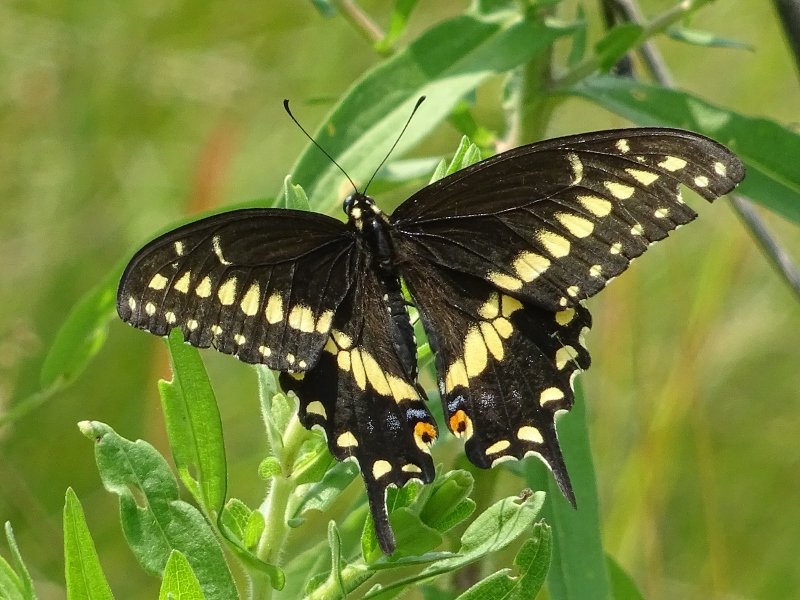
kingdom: Animalia
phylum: Arthropoda
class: Insecta
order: Lepidoptera
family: Papilionidae
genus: Papilio
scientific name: Papilio polyxenes
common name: Black Swallowtail
